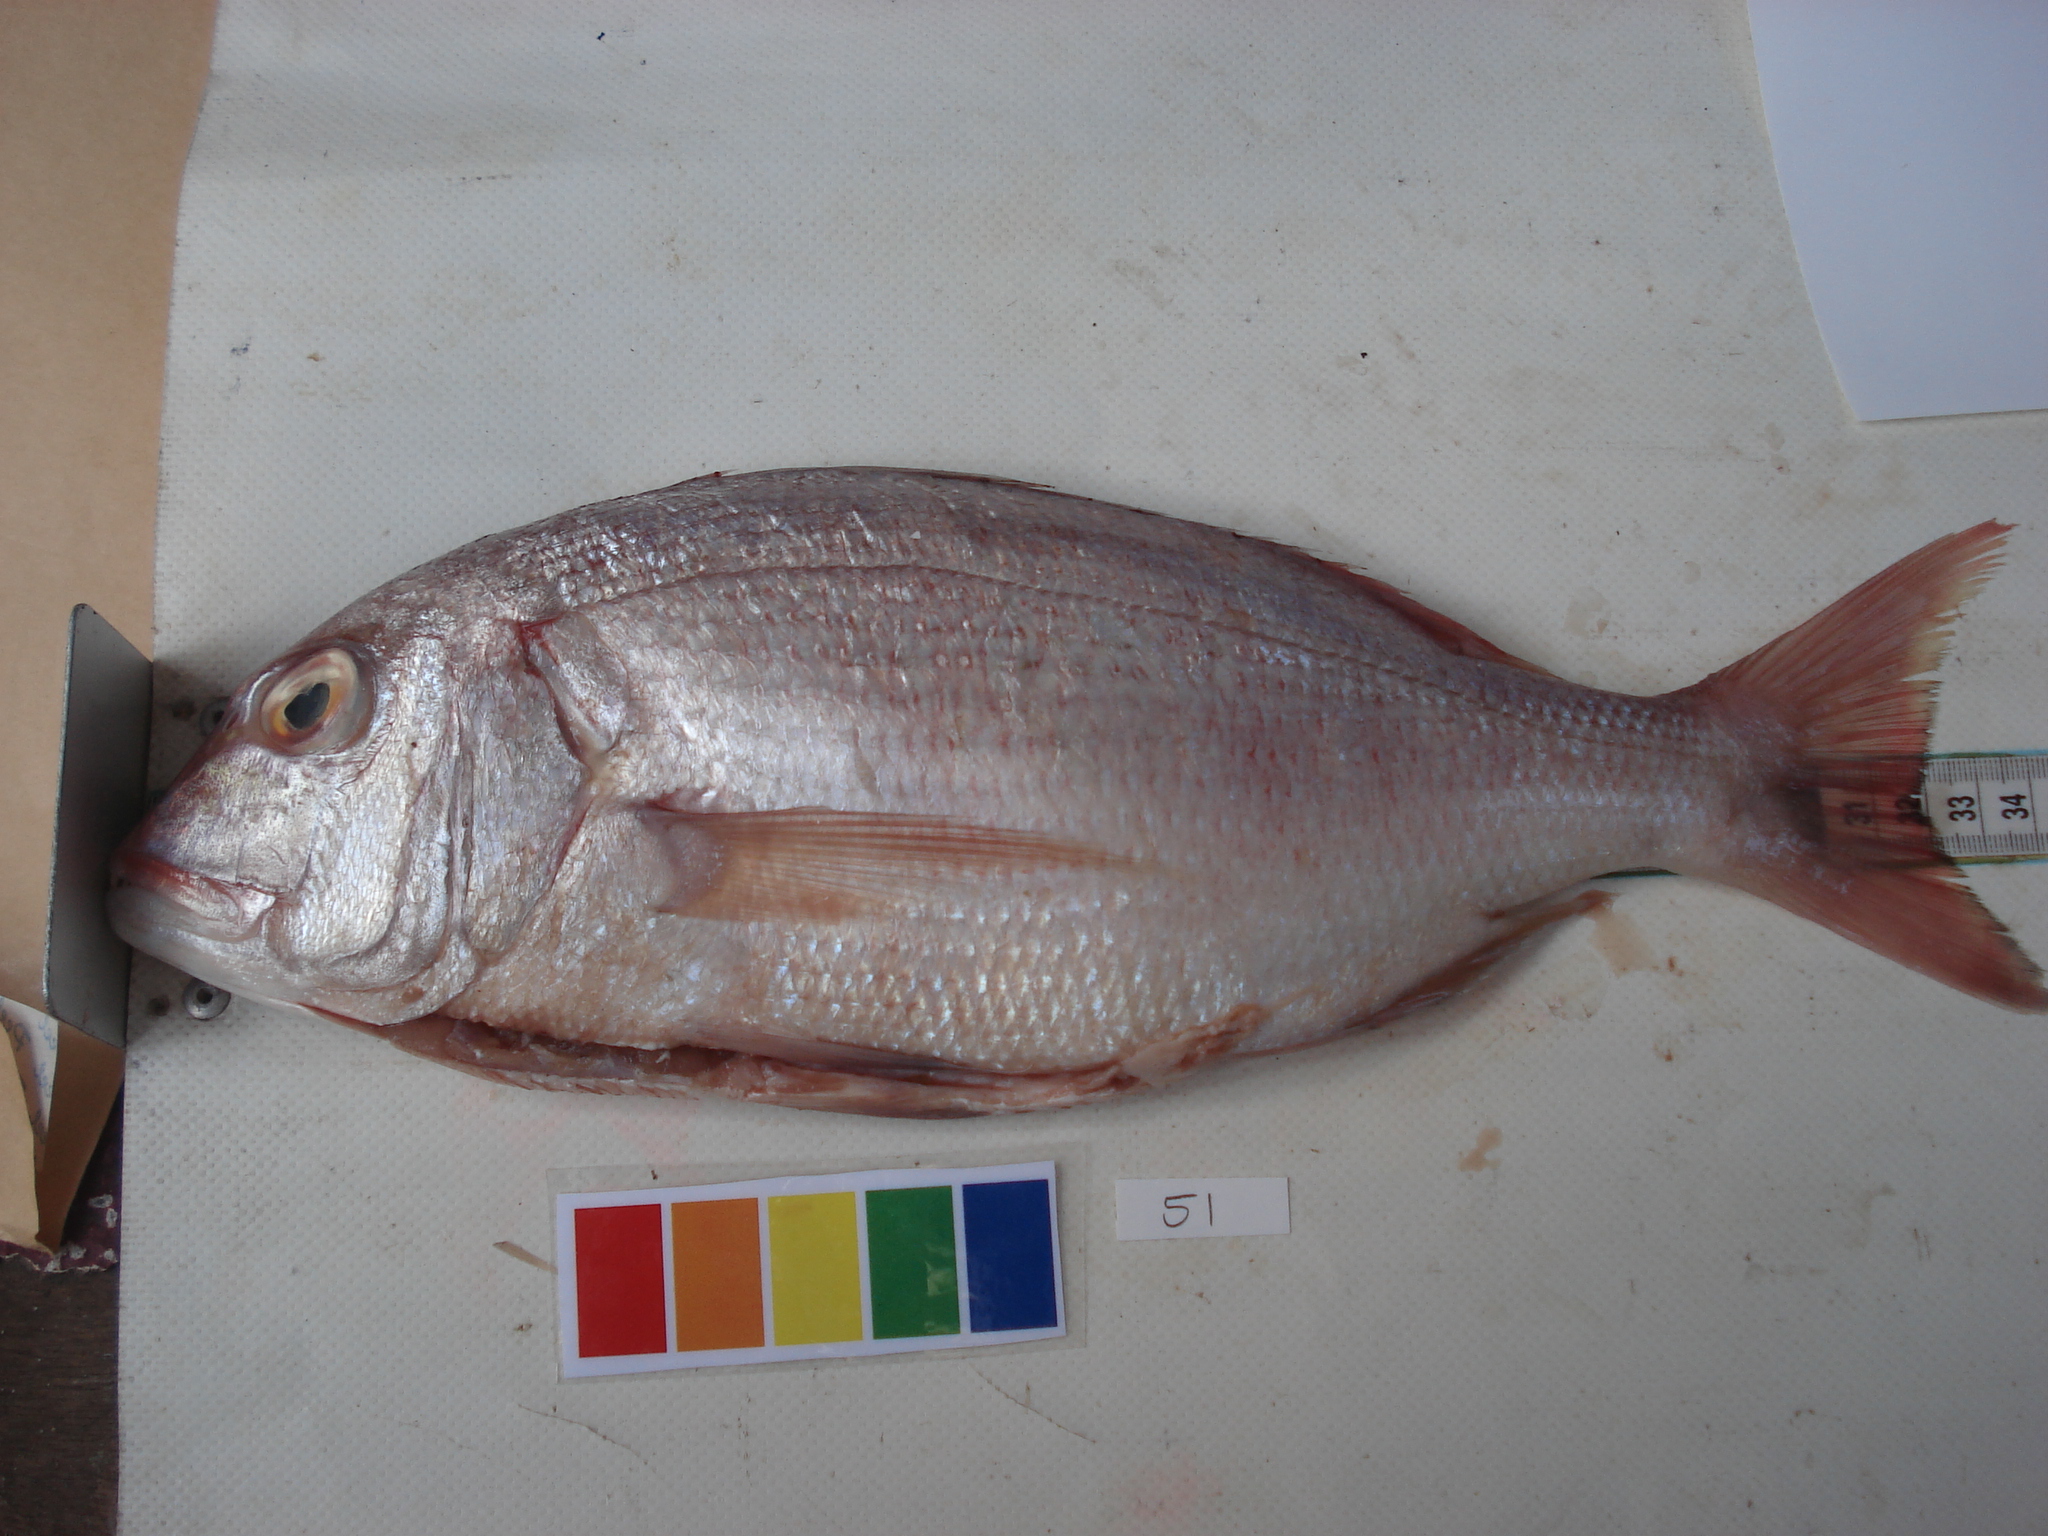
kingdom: Animalia
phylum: Chordata
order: Perciformes
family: Sparidae
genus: Cheimerius
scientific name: Cheimerius nufar
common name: Soldier
